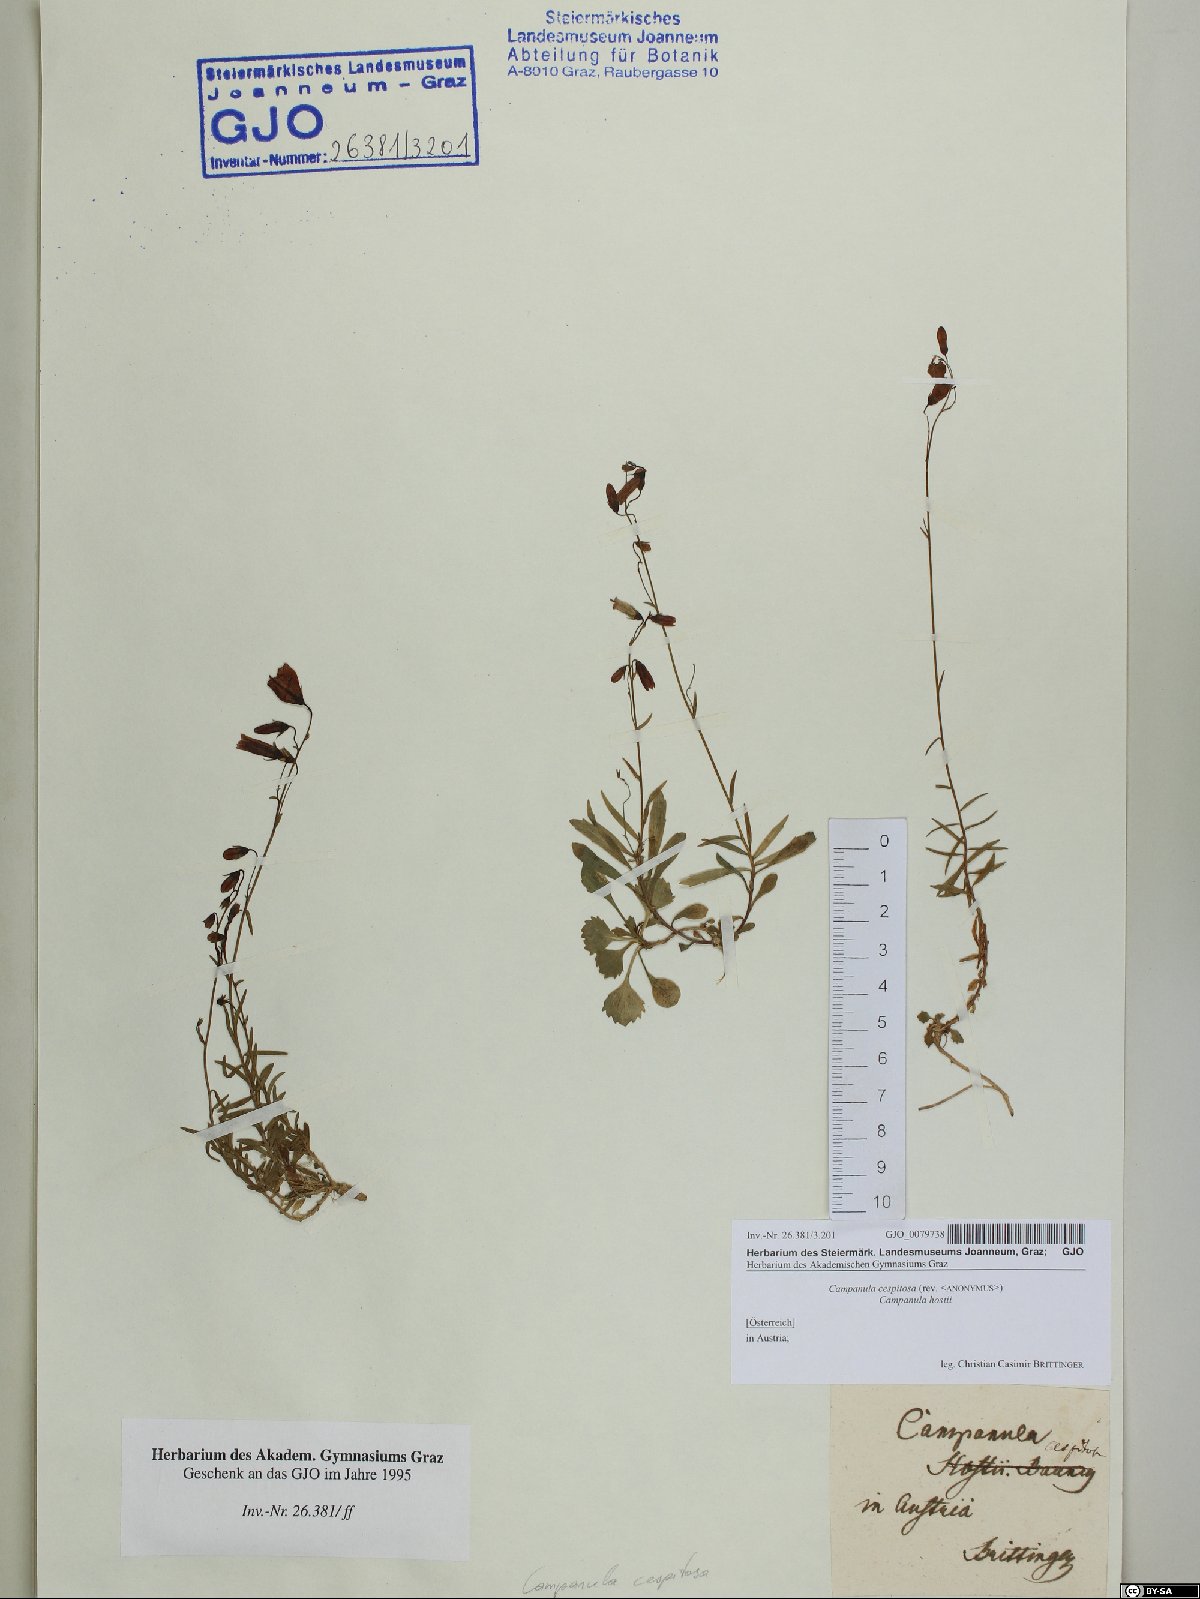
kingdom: Plantae
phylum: Tracheophyta
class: Magnoliopsida
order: Asterales
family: Campanulaceae
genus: Campanula
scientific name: Campanula cespitosa
